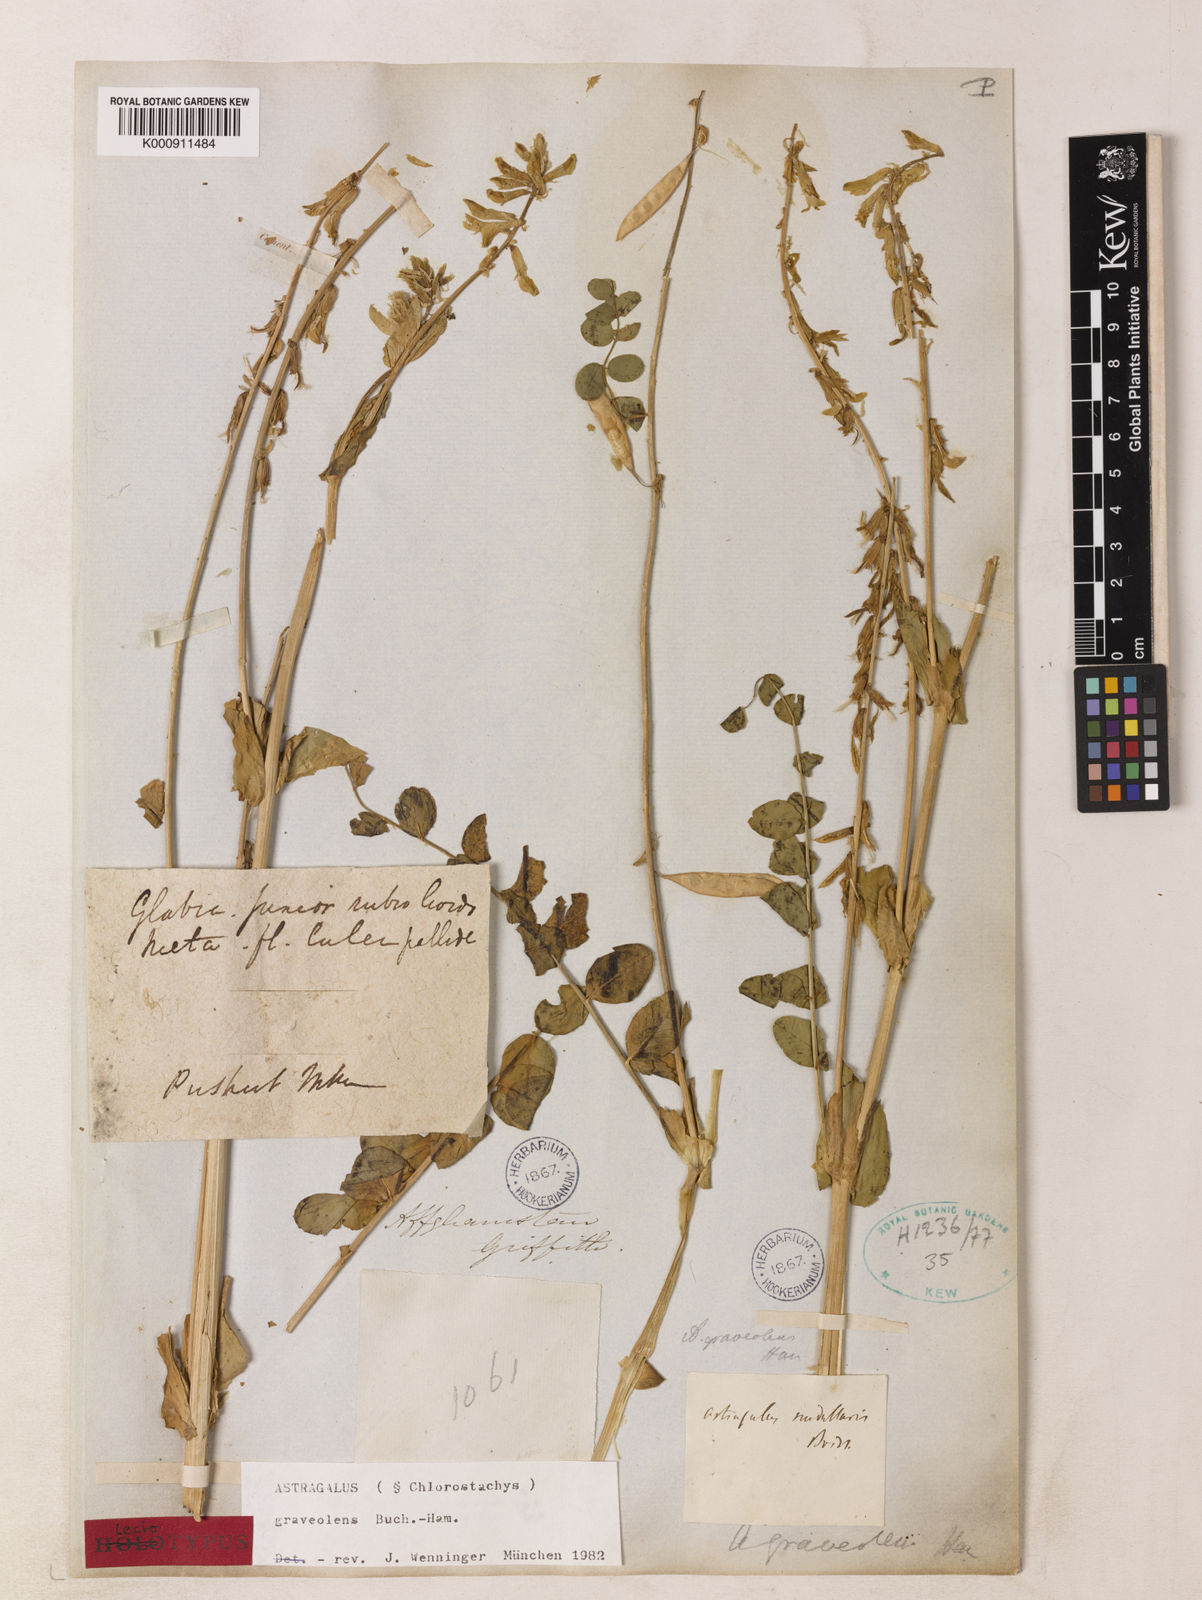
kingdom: Plantae
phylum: Tracheophyta
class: Magnoliopsida
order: Fabales
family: Fabaceae
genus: Astragalus
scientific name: Astragalus
